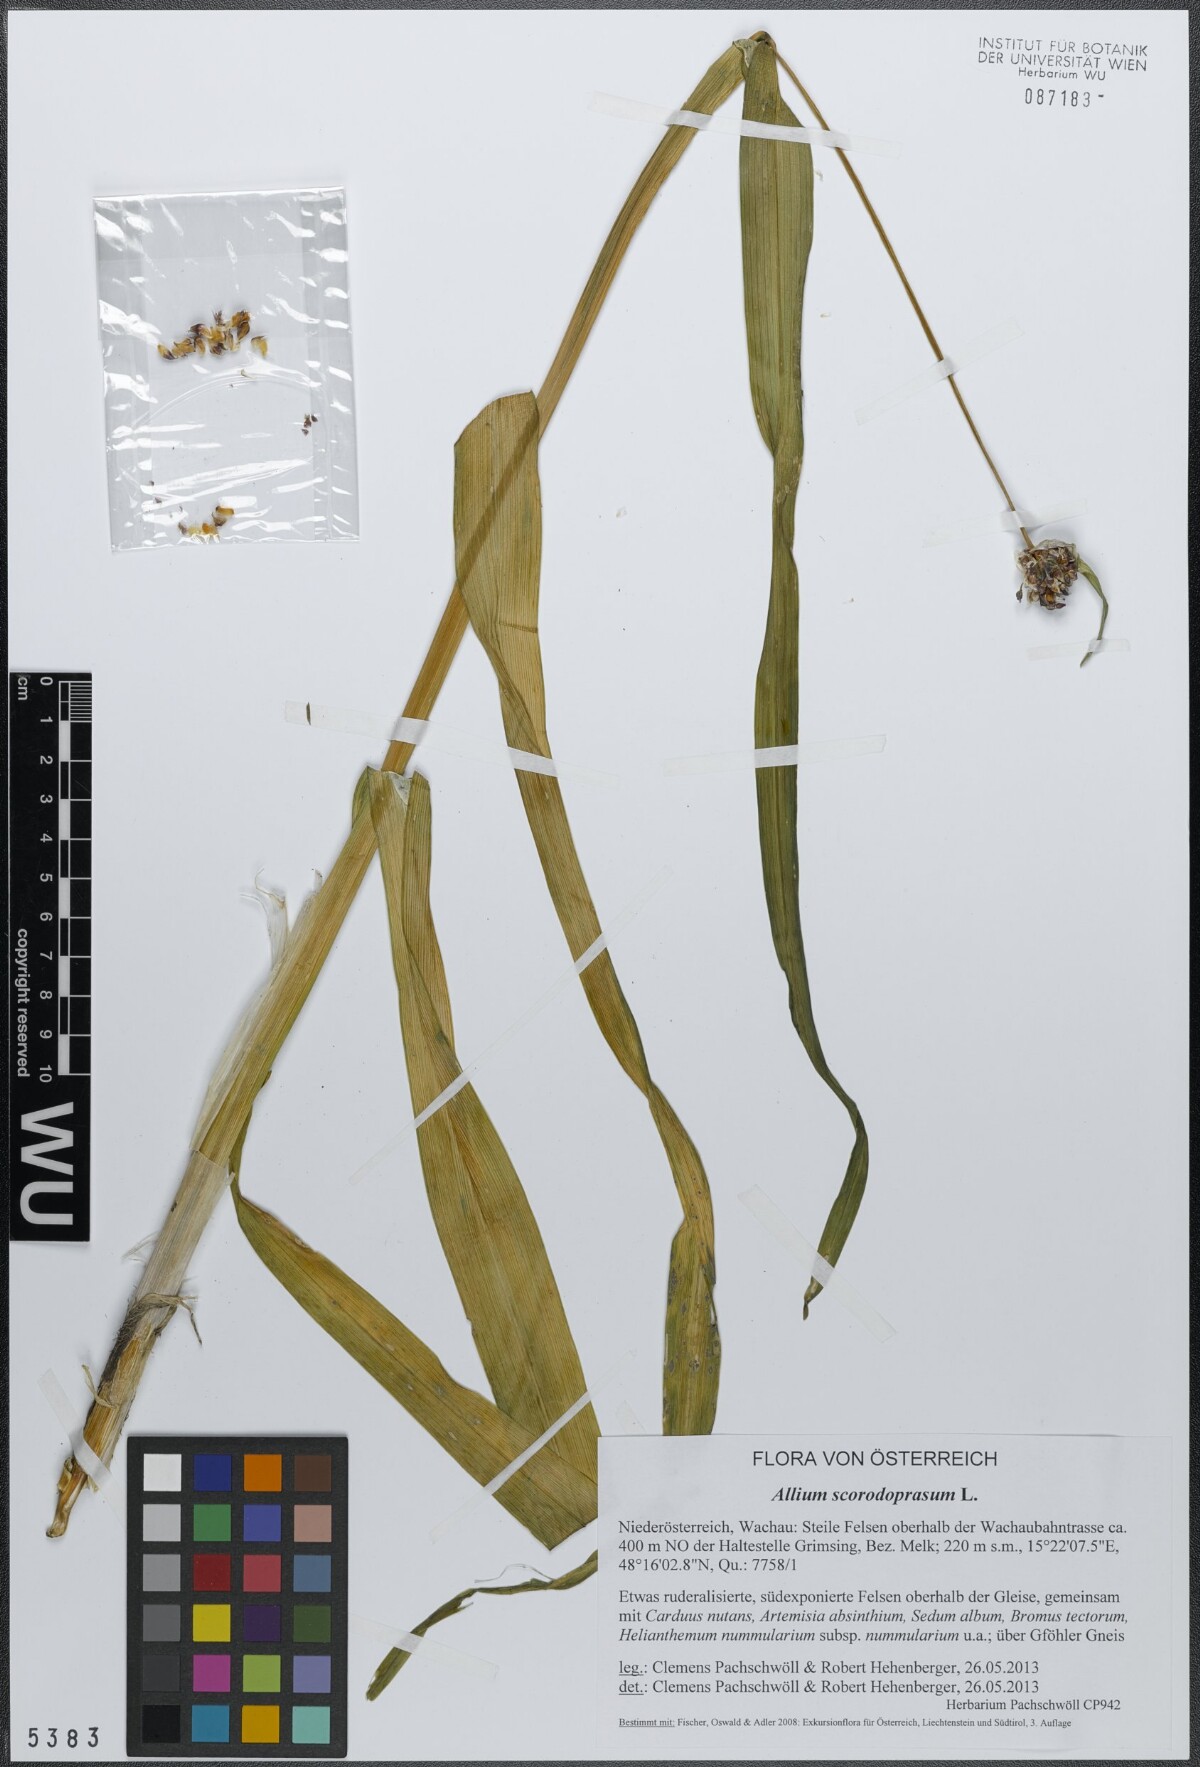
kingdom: Plantae
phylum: Tracheophyta
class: Liliopsida
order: Asparagales
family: Amaryllidaceae
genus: Allium
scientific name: Allium scorodoprasum
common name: Sand leek
